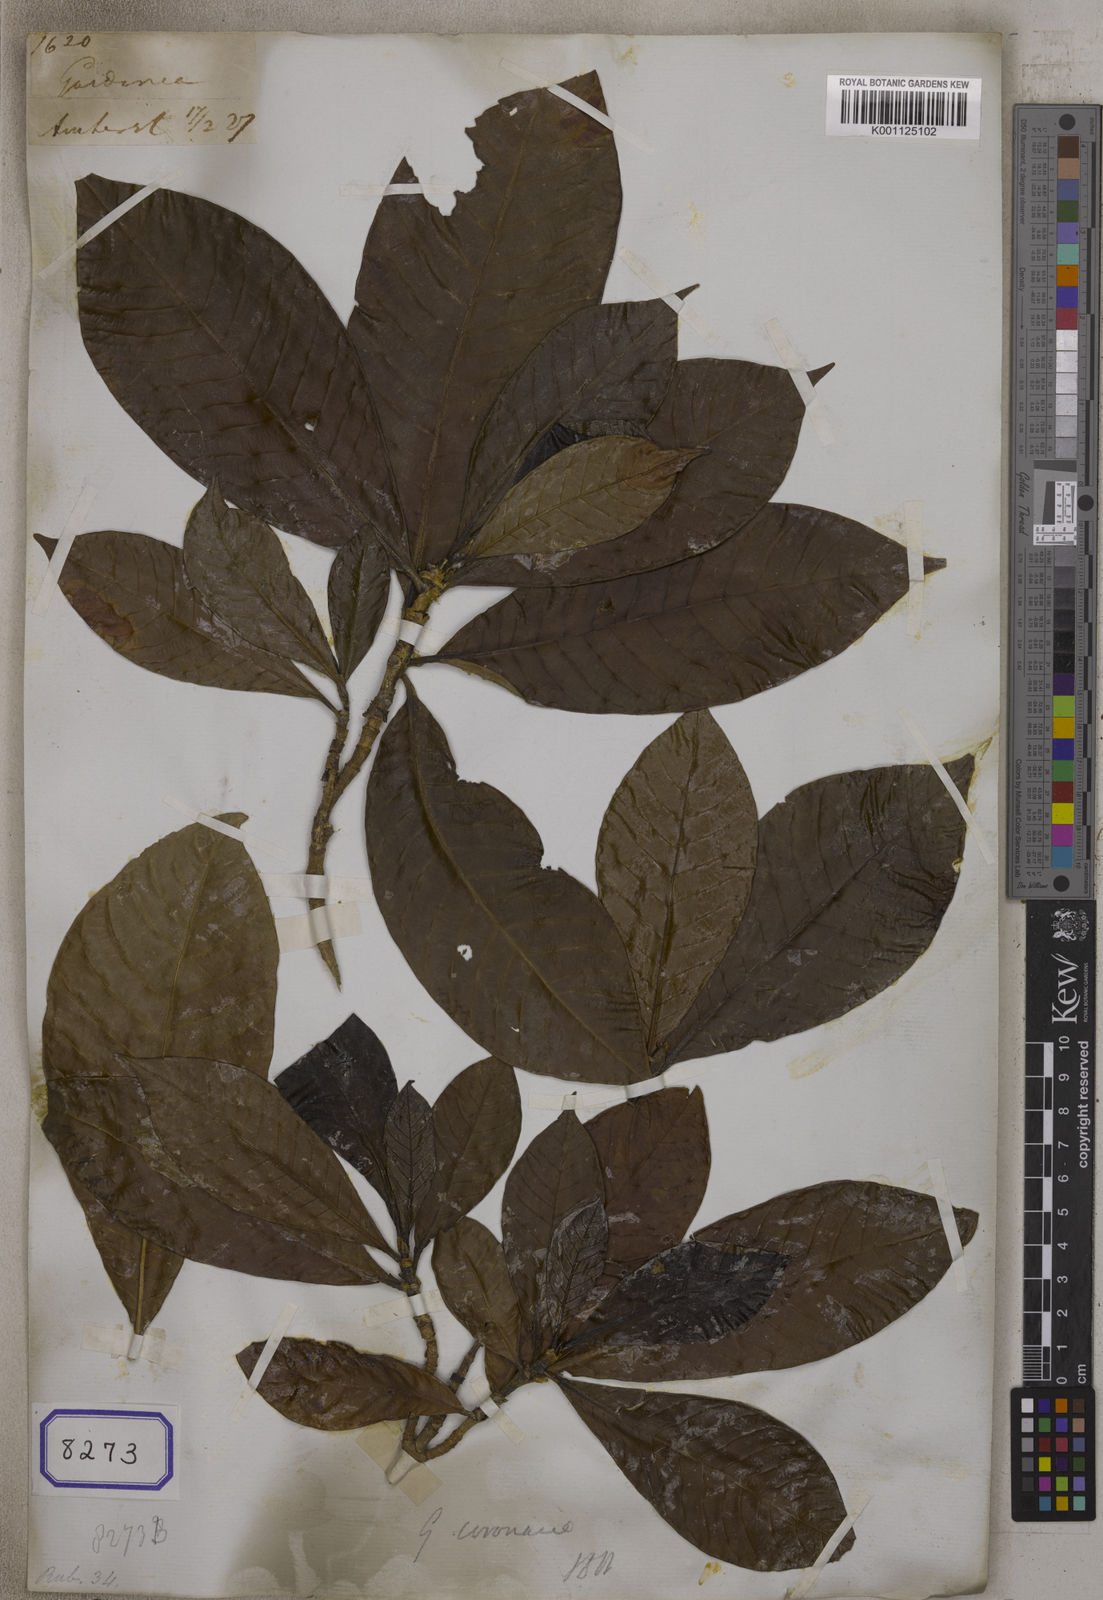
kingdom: Plantae
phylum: Tracheophyta
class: Magnoliopsida
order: Gentianales
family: Rubiaceae
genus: Gardenia
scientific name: Gardenia
